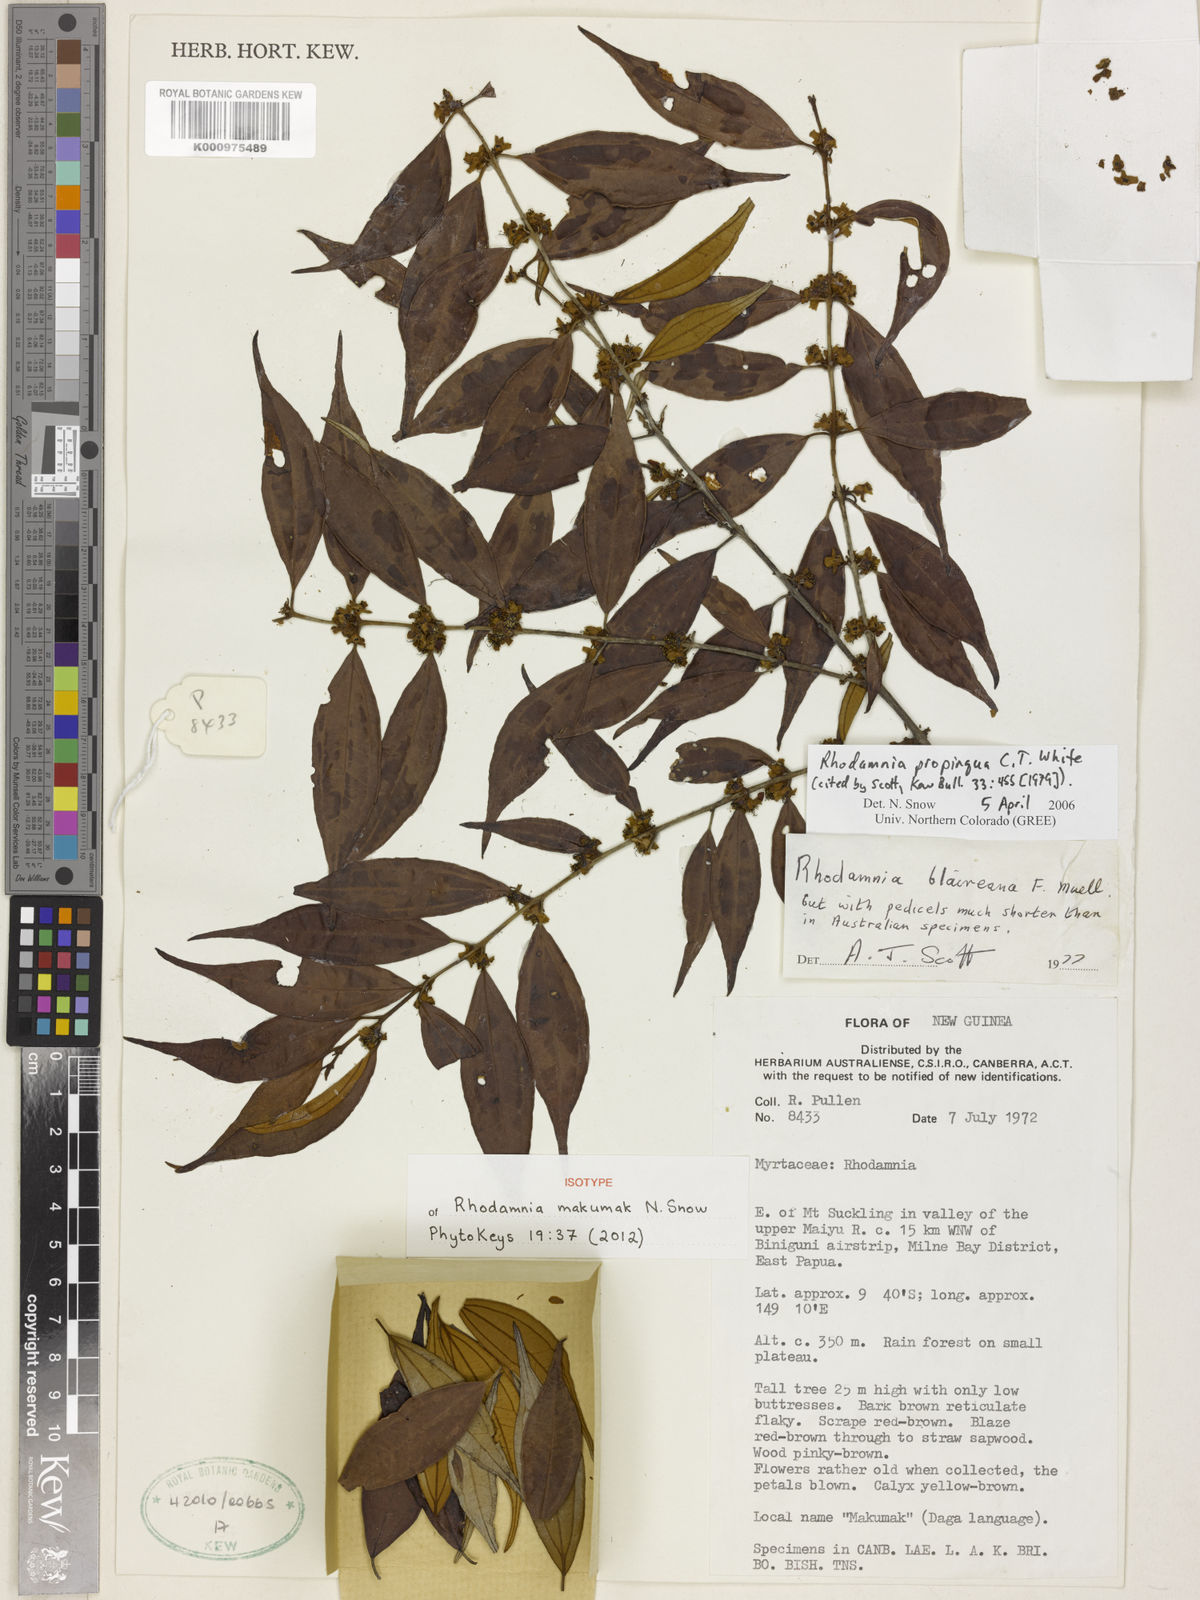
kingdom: Plantae
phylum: Tracheophyta
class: Magnoliopsida
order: Myrtales
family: Myrtaceae
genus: Rhodamnia
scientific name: Rhodamnia makumak
